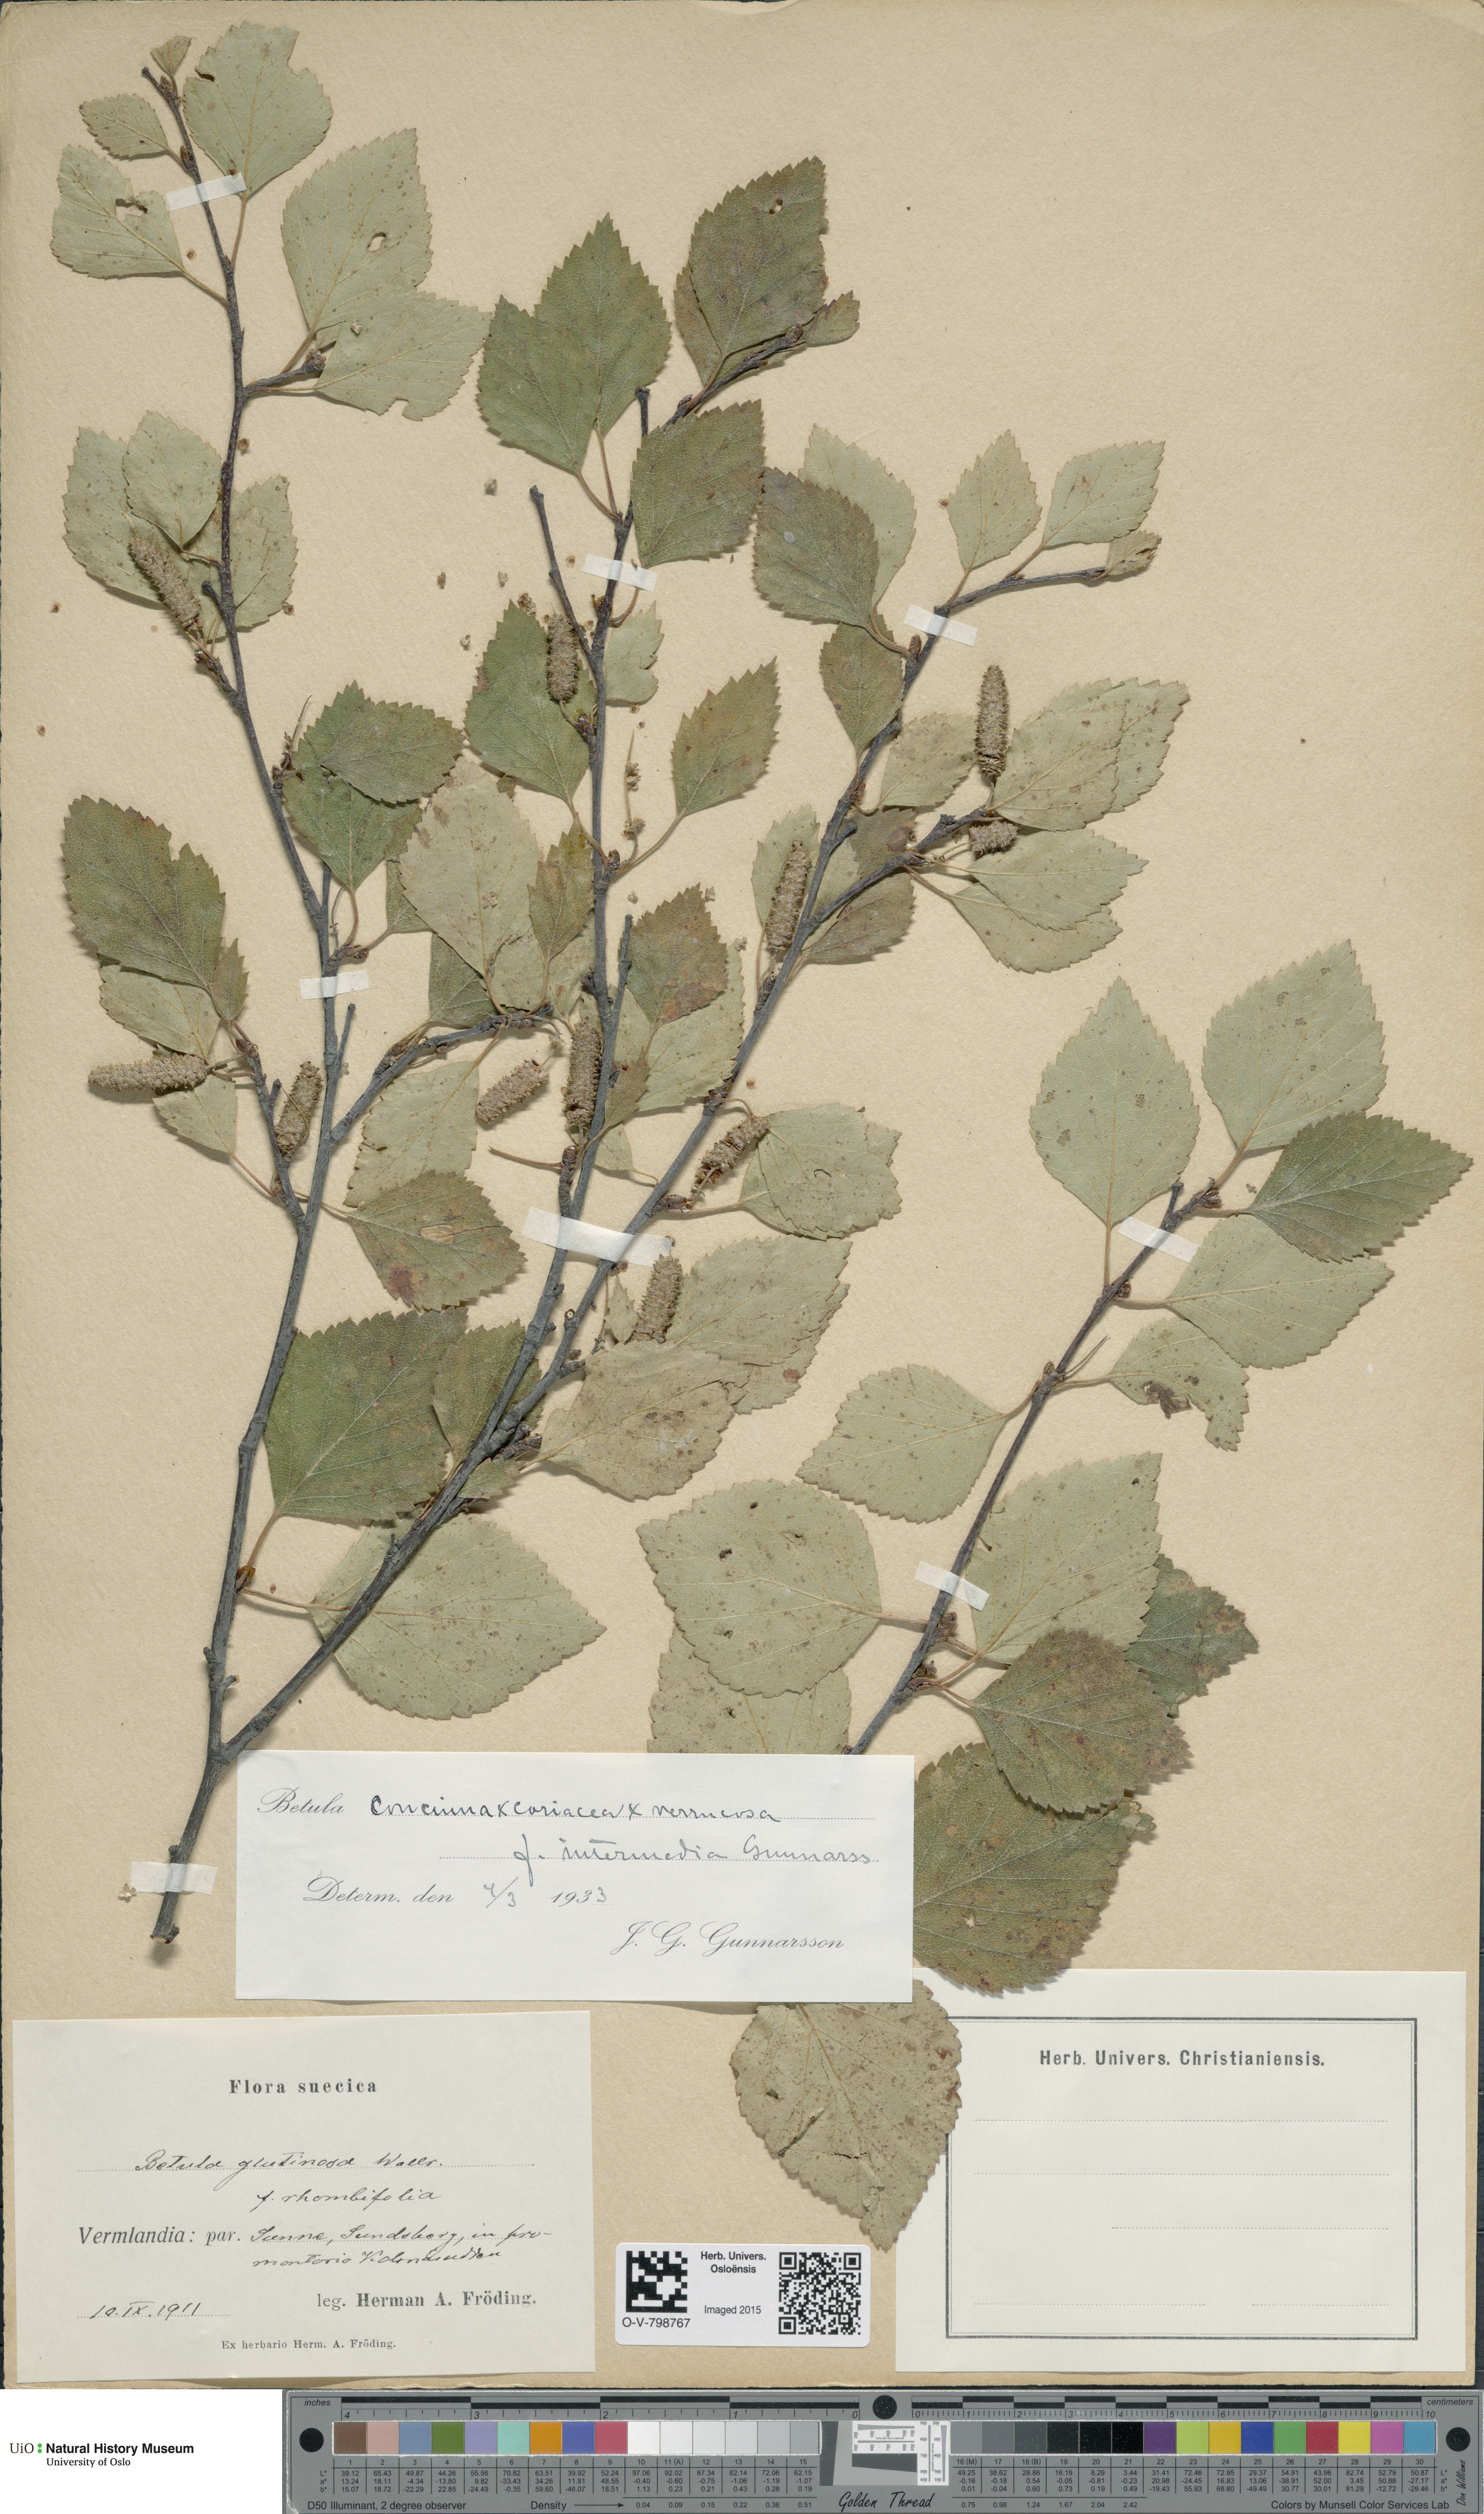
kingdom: Plantae
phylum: Tracheophyta
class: Magnoliopsida
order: Fagales
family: Betulaceae
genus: Betula
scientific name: Betula
